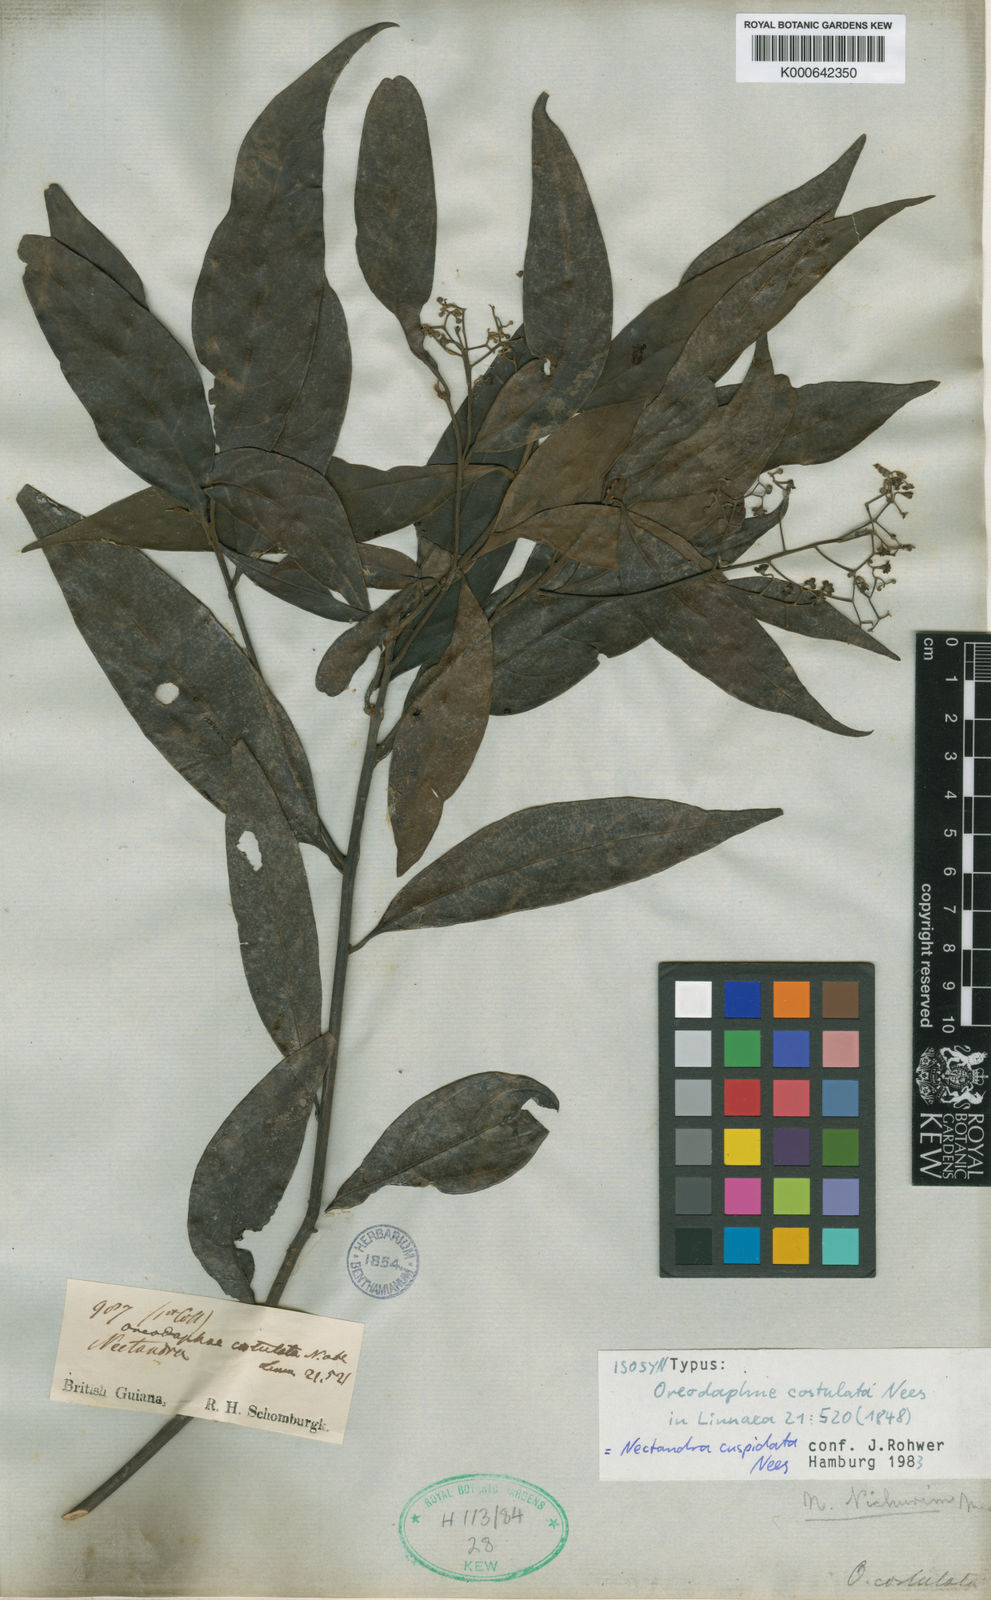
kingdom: Plantae
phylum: Tracheophyta
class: Magnoliopsida
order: Laurales
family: Lauraceae
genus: Nectandra
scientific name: Nectandra cuspidata
